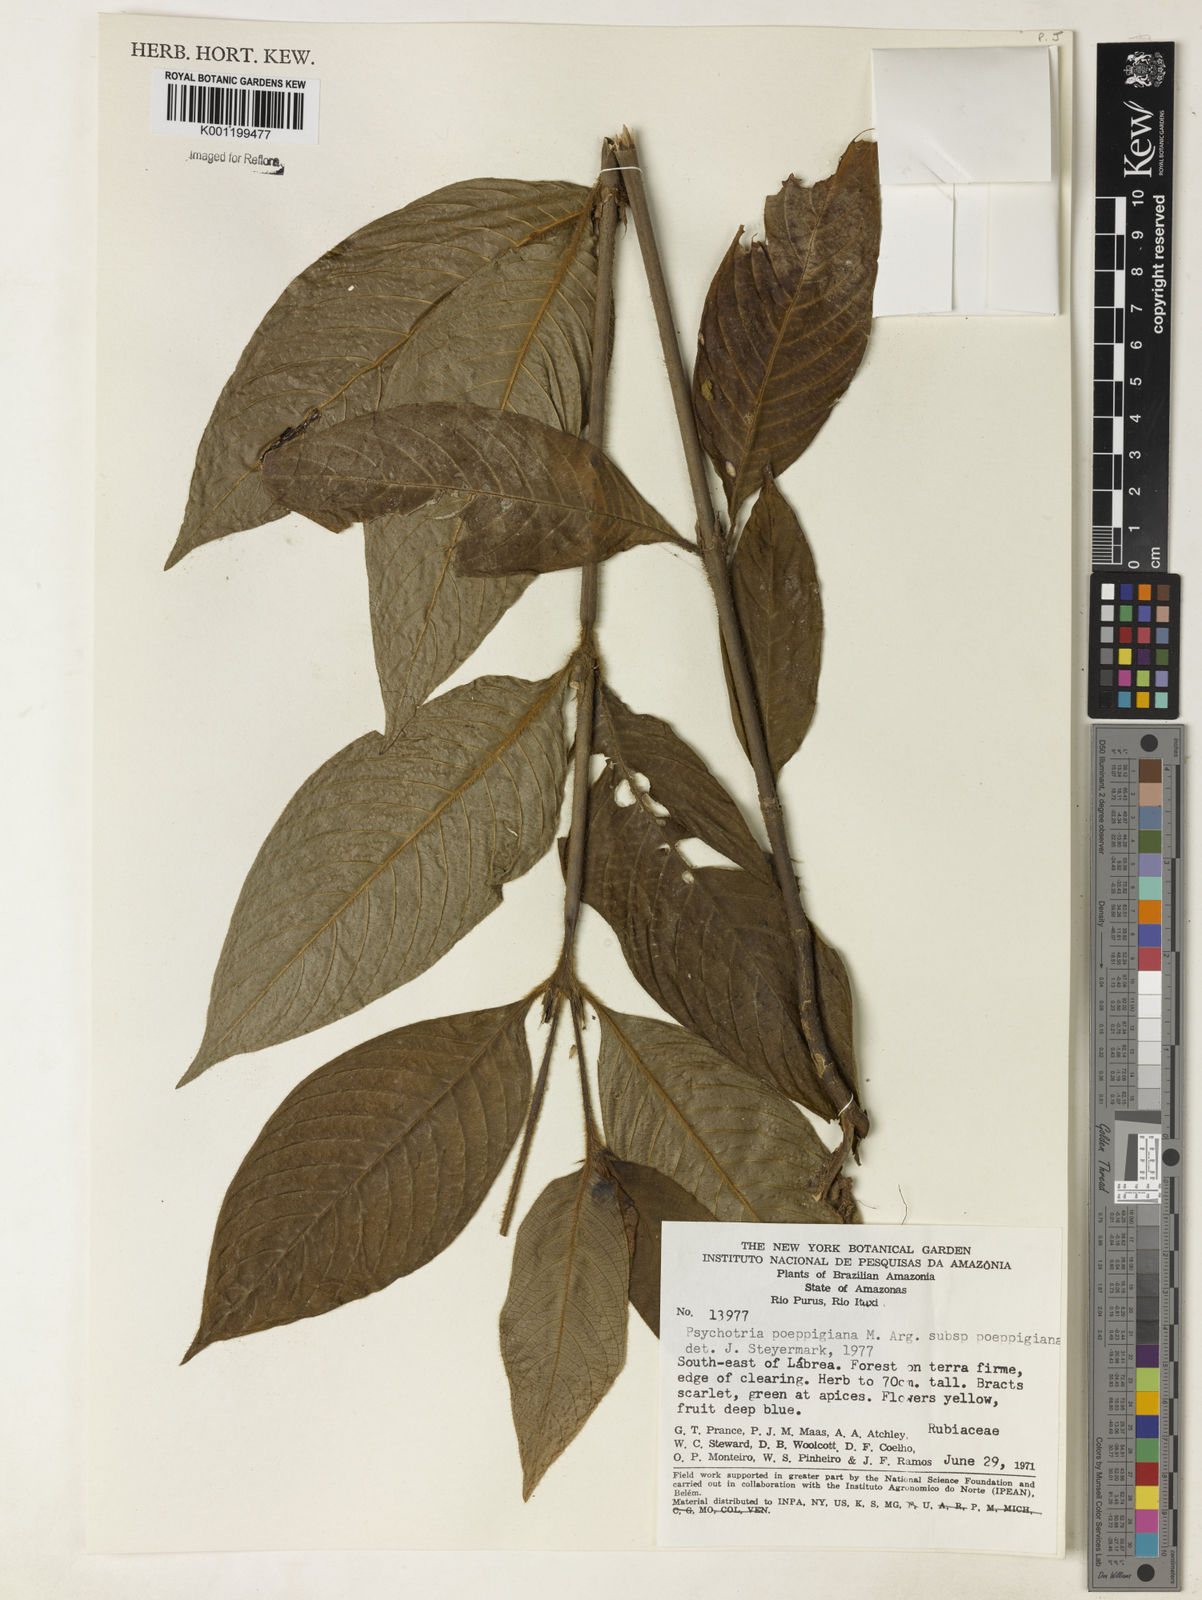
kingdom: Plantae
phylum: Tracheophyta
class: Magnoliopsida
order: Gentianales
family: Rubiaceae
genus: Psychotria
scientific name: Psychotria
